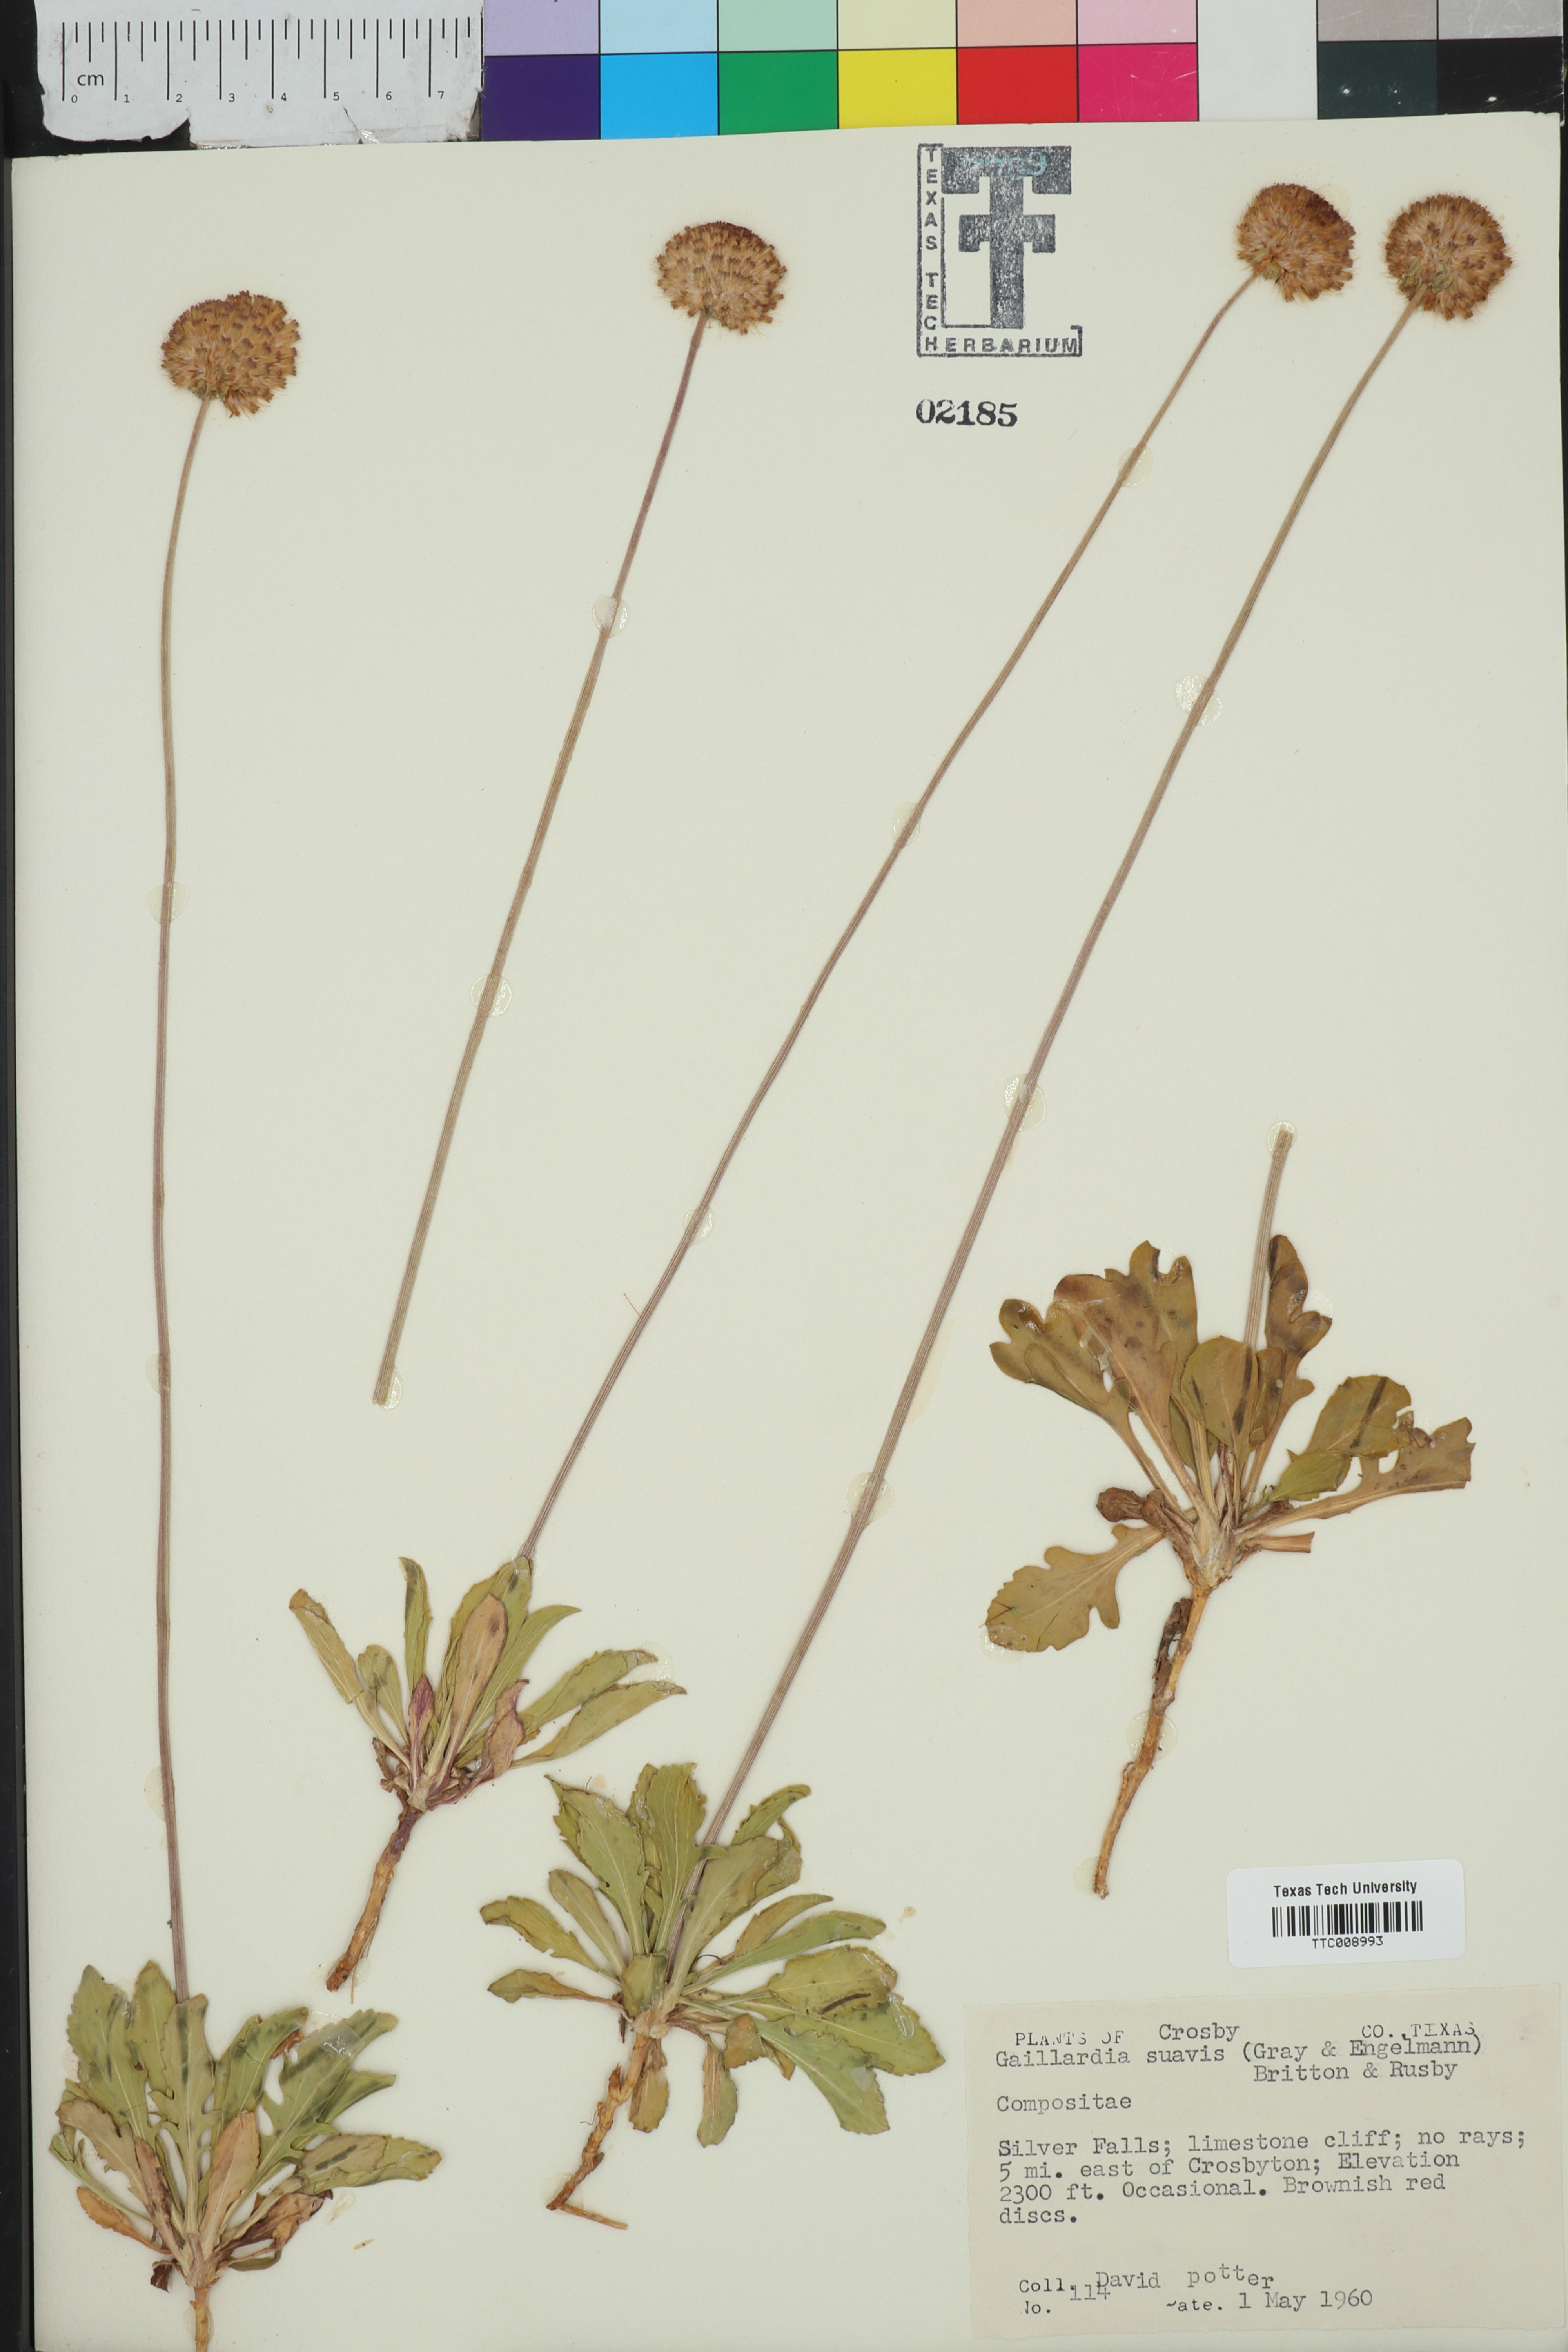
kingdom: Plantae
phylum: Tracheophyta
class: Magnoliopsida
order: Asterales
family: Asteraceae
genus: Gaillardia
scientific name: Gaillardia suavis
